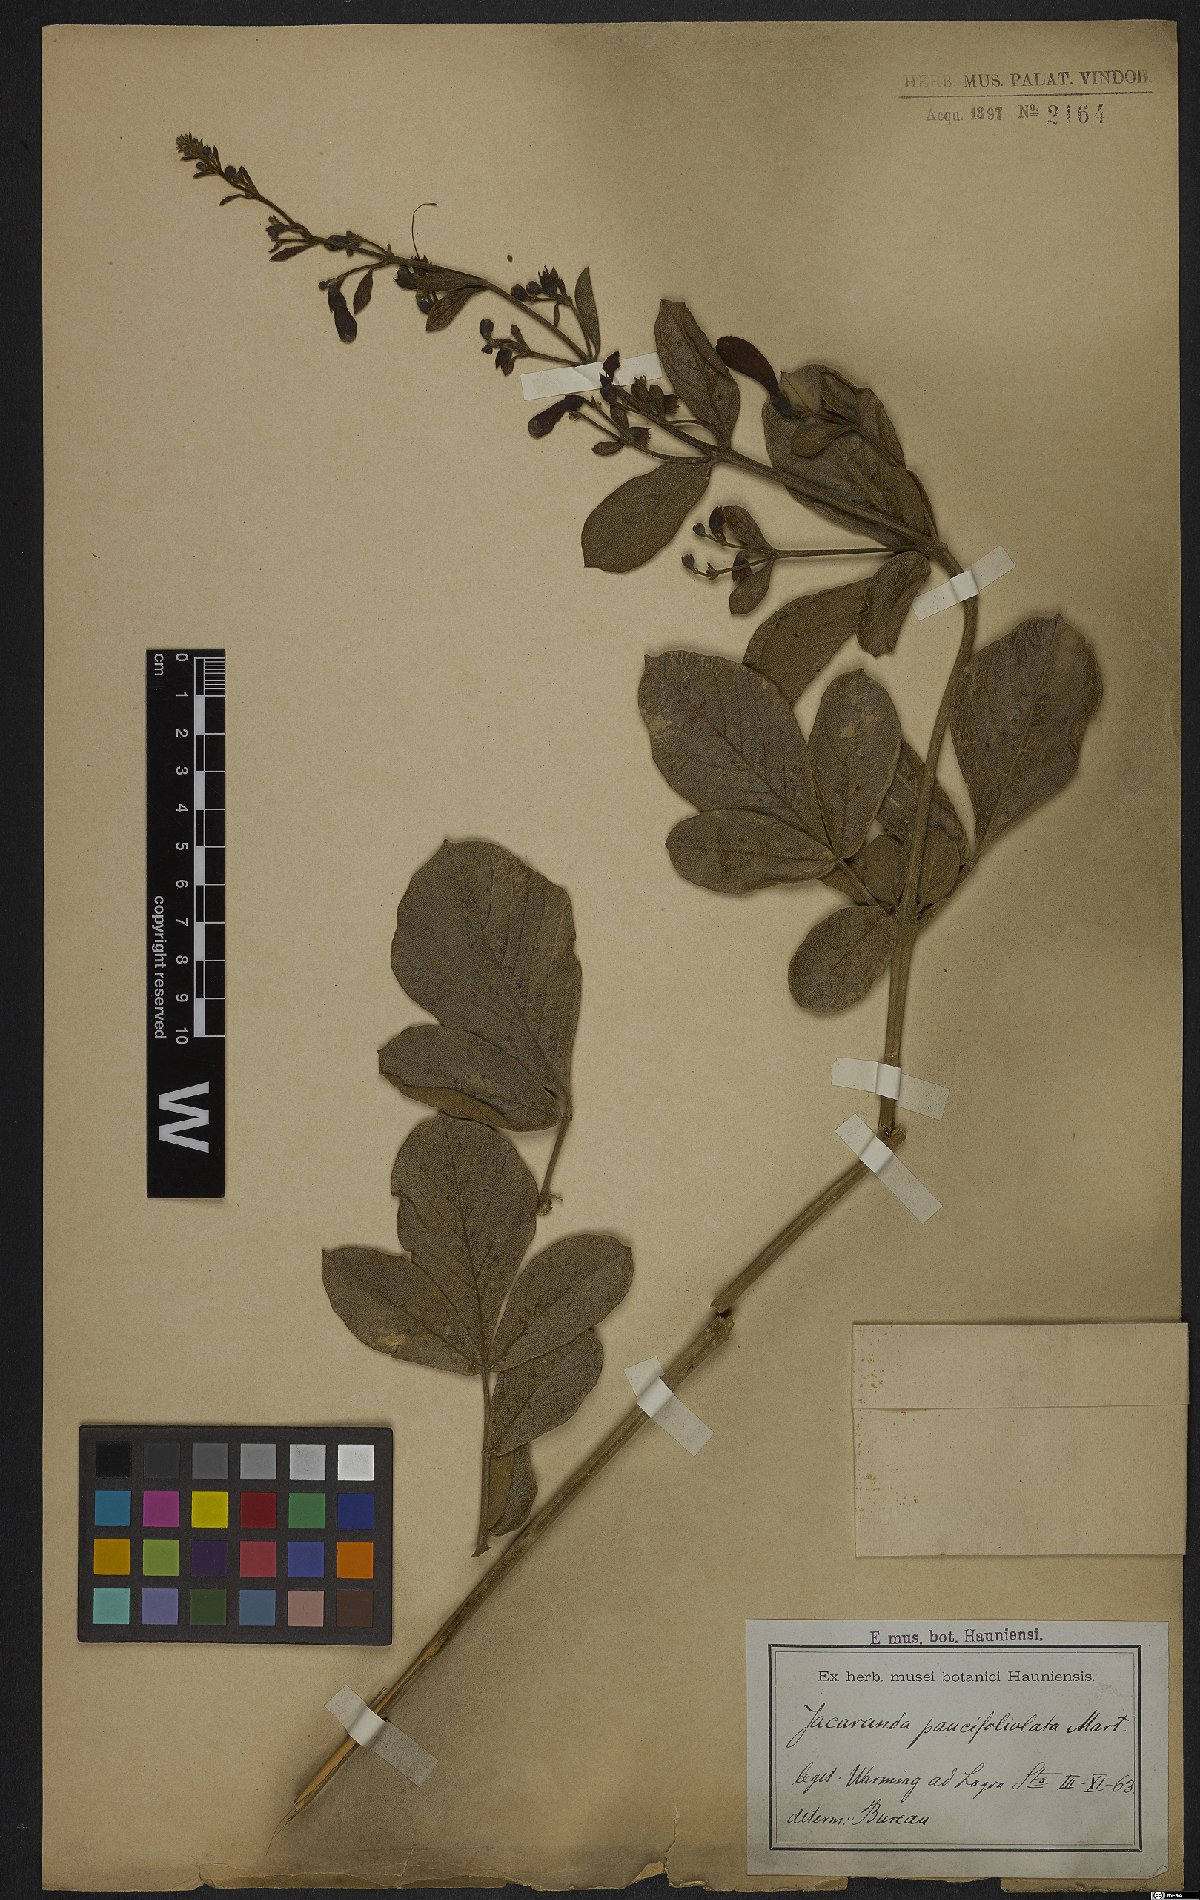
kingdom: Plantae
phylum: Tracheophyta
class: Magnoliopsida
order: Lamiales
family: Bignoniaceae
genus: Jacaranda
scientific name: Jacaranda paucifoliolata
